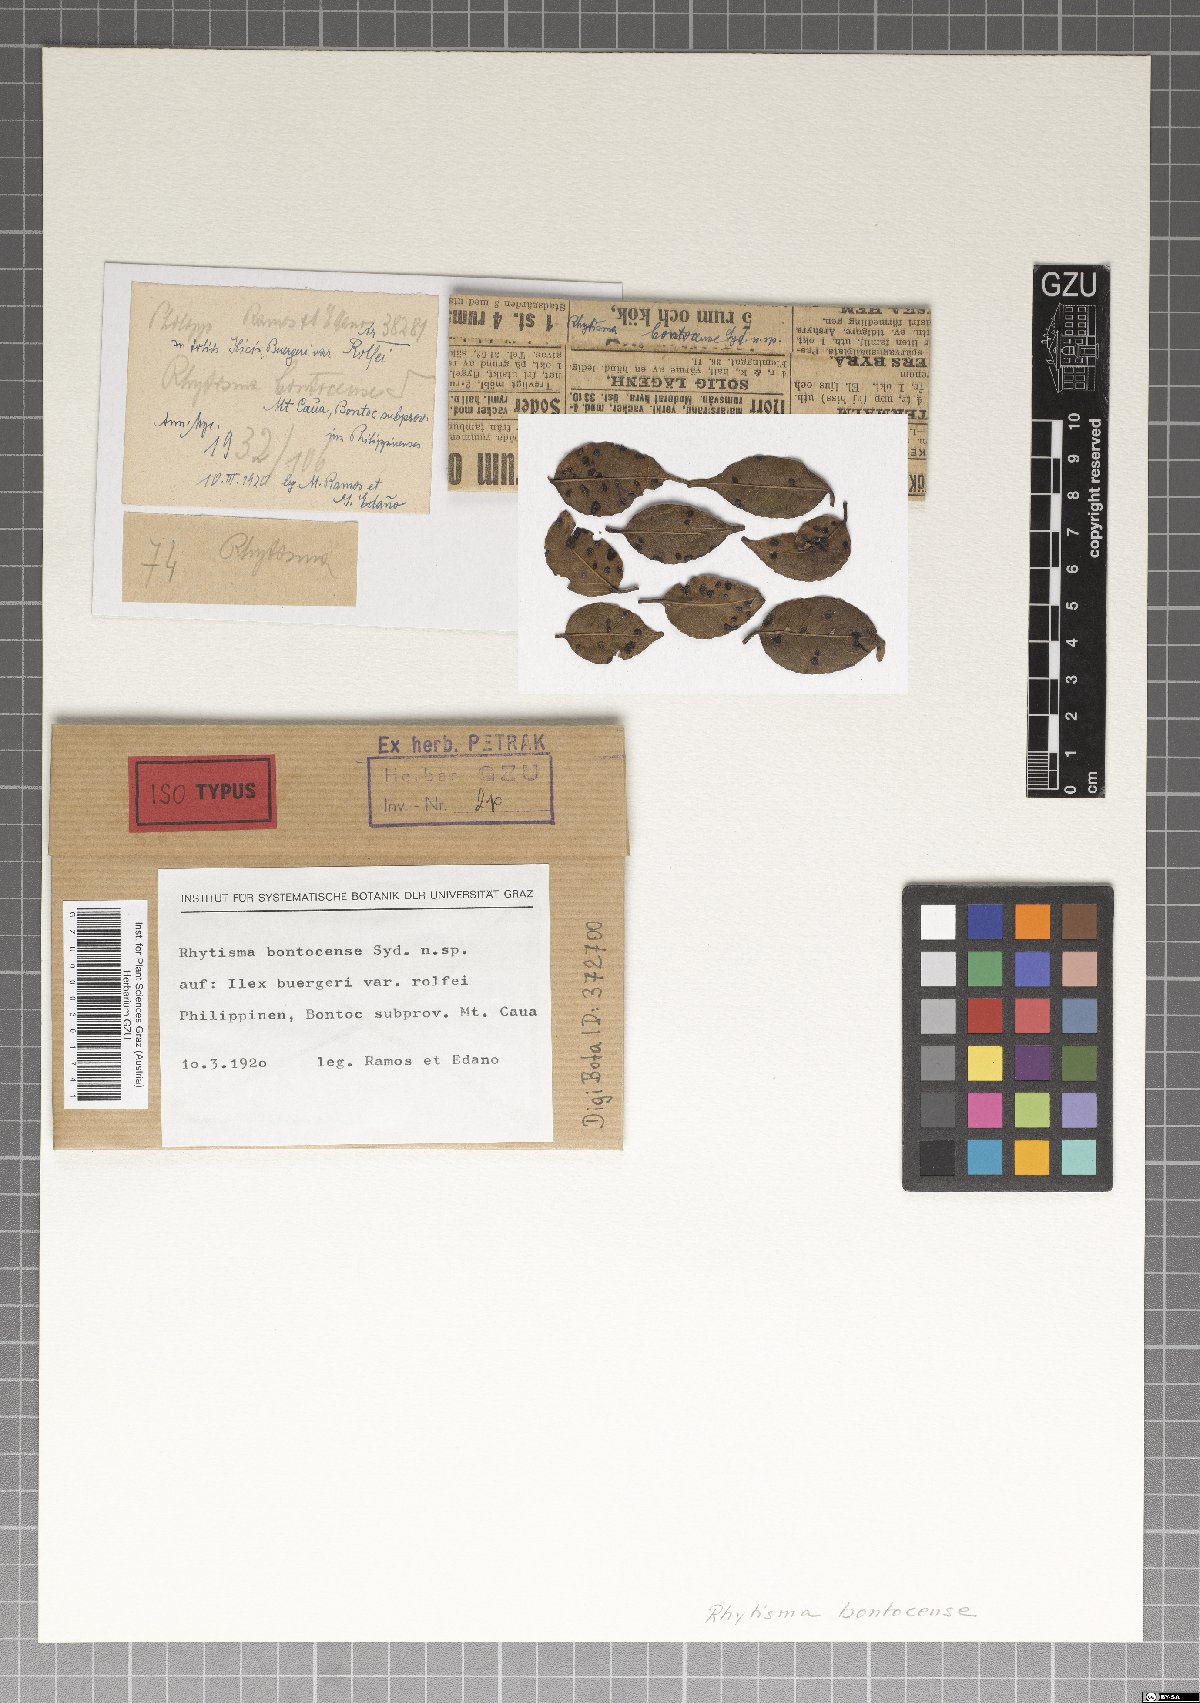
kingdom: Fungi
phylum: Ascomycota
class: Leotiomycetes
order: Rhytismatales
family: Rhytismataceae
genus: Rhytisma
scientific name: Rhytisma bontocense
